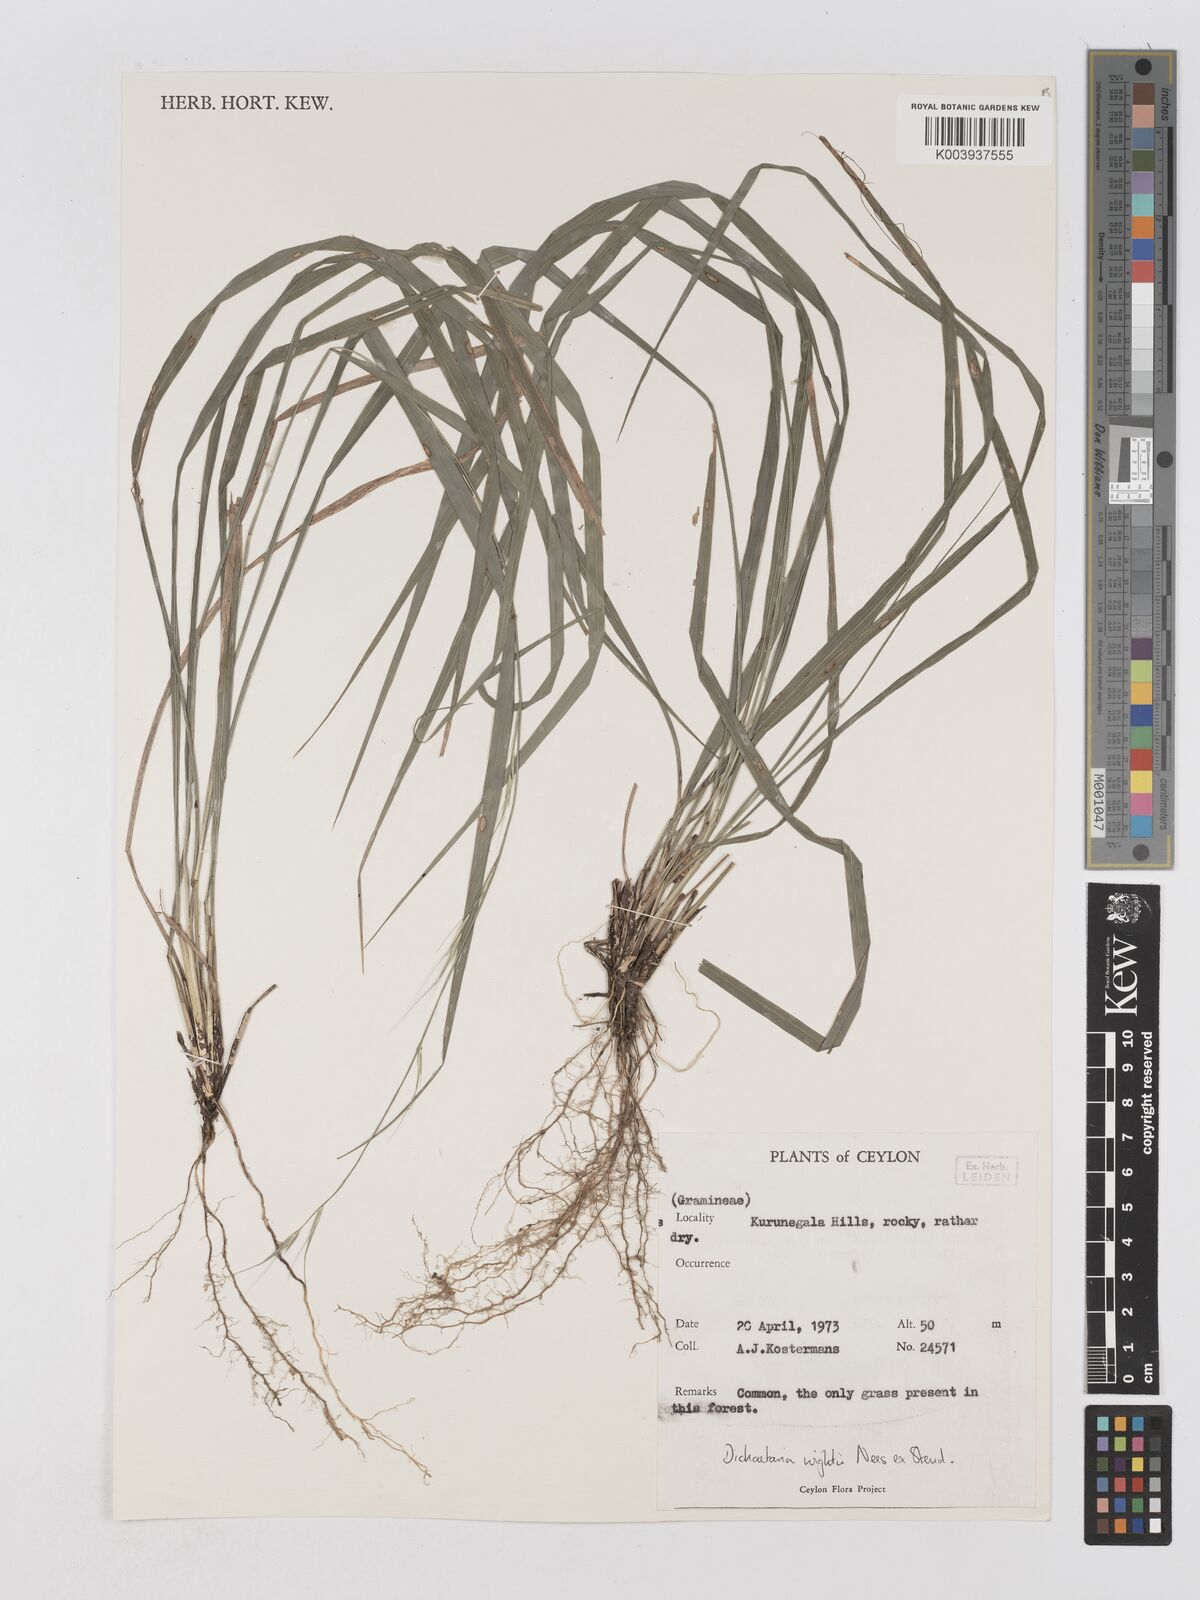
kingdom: Plantae
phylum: Tracheophyta
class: Liliopsida
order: Poales
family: Poaceae
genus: Dichaetaria
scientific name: Dichaetaria wightii
